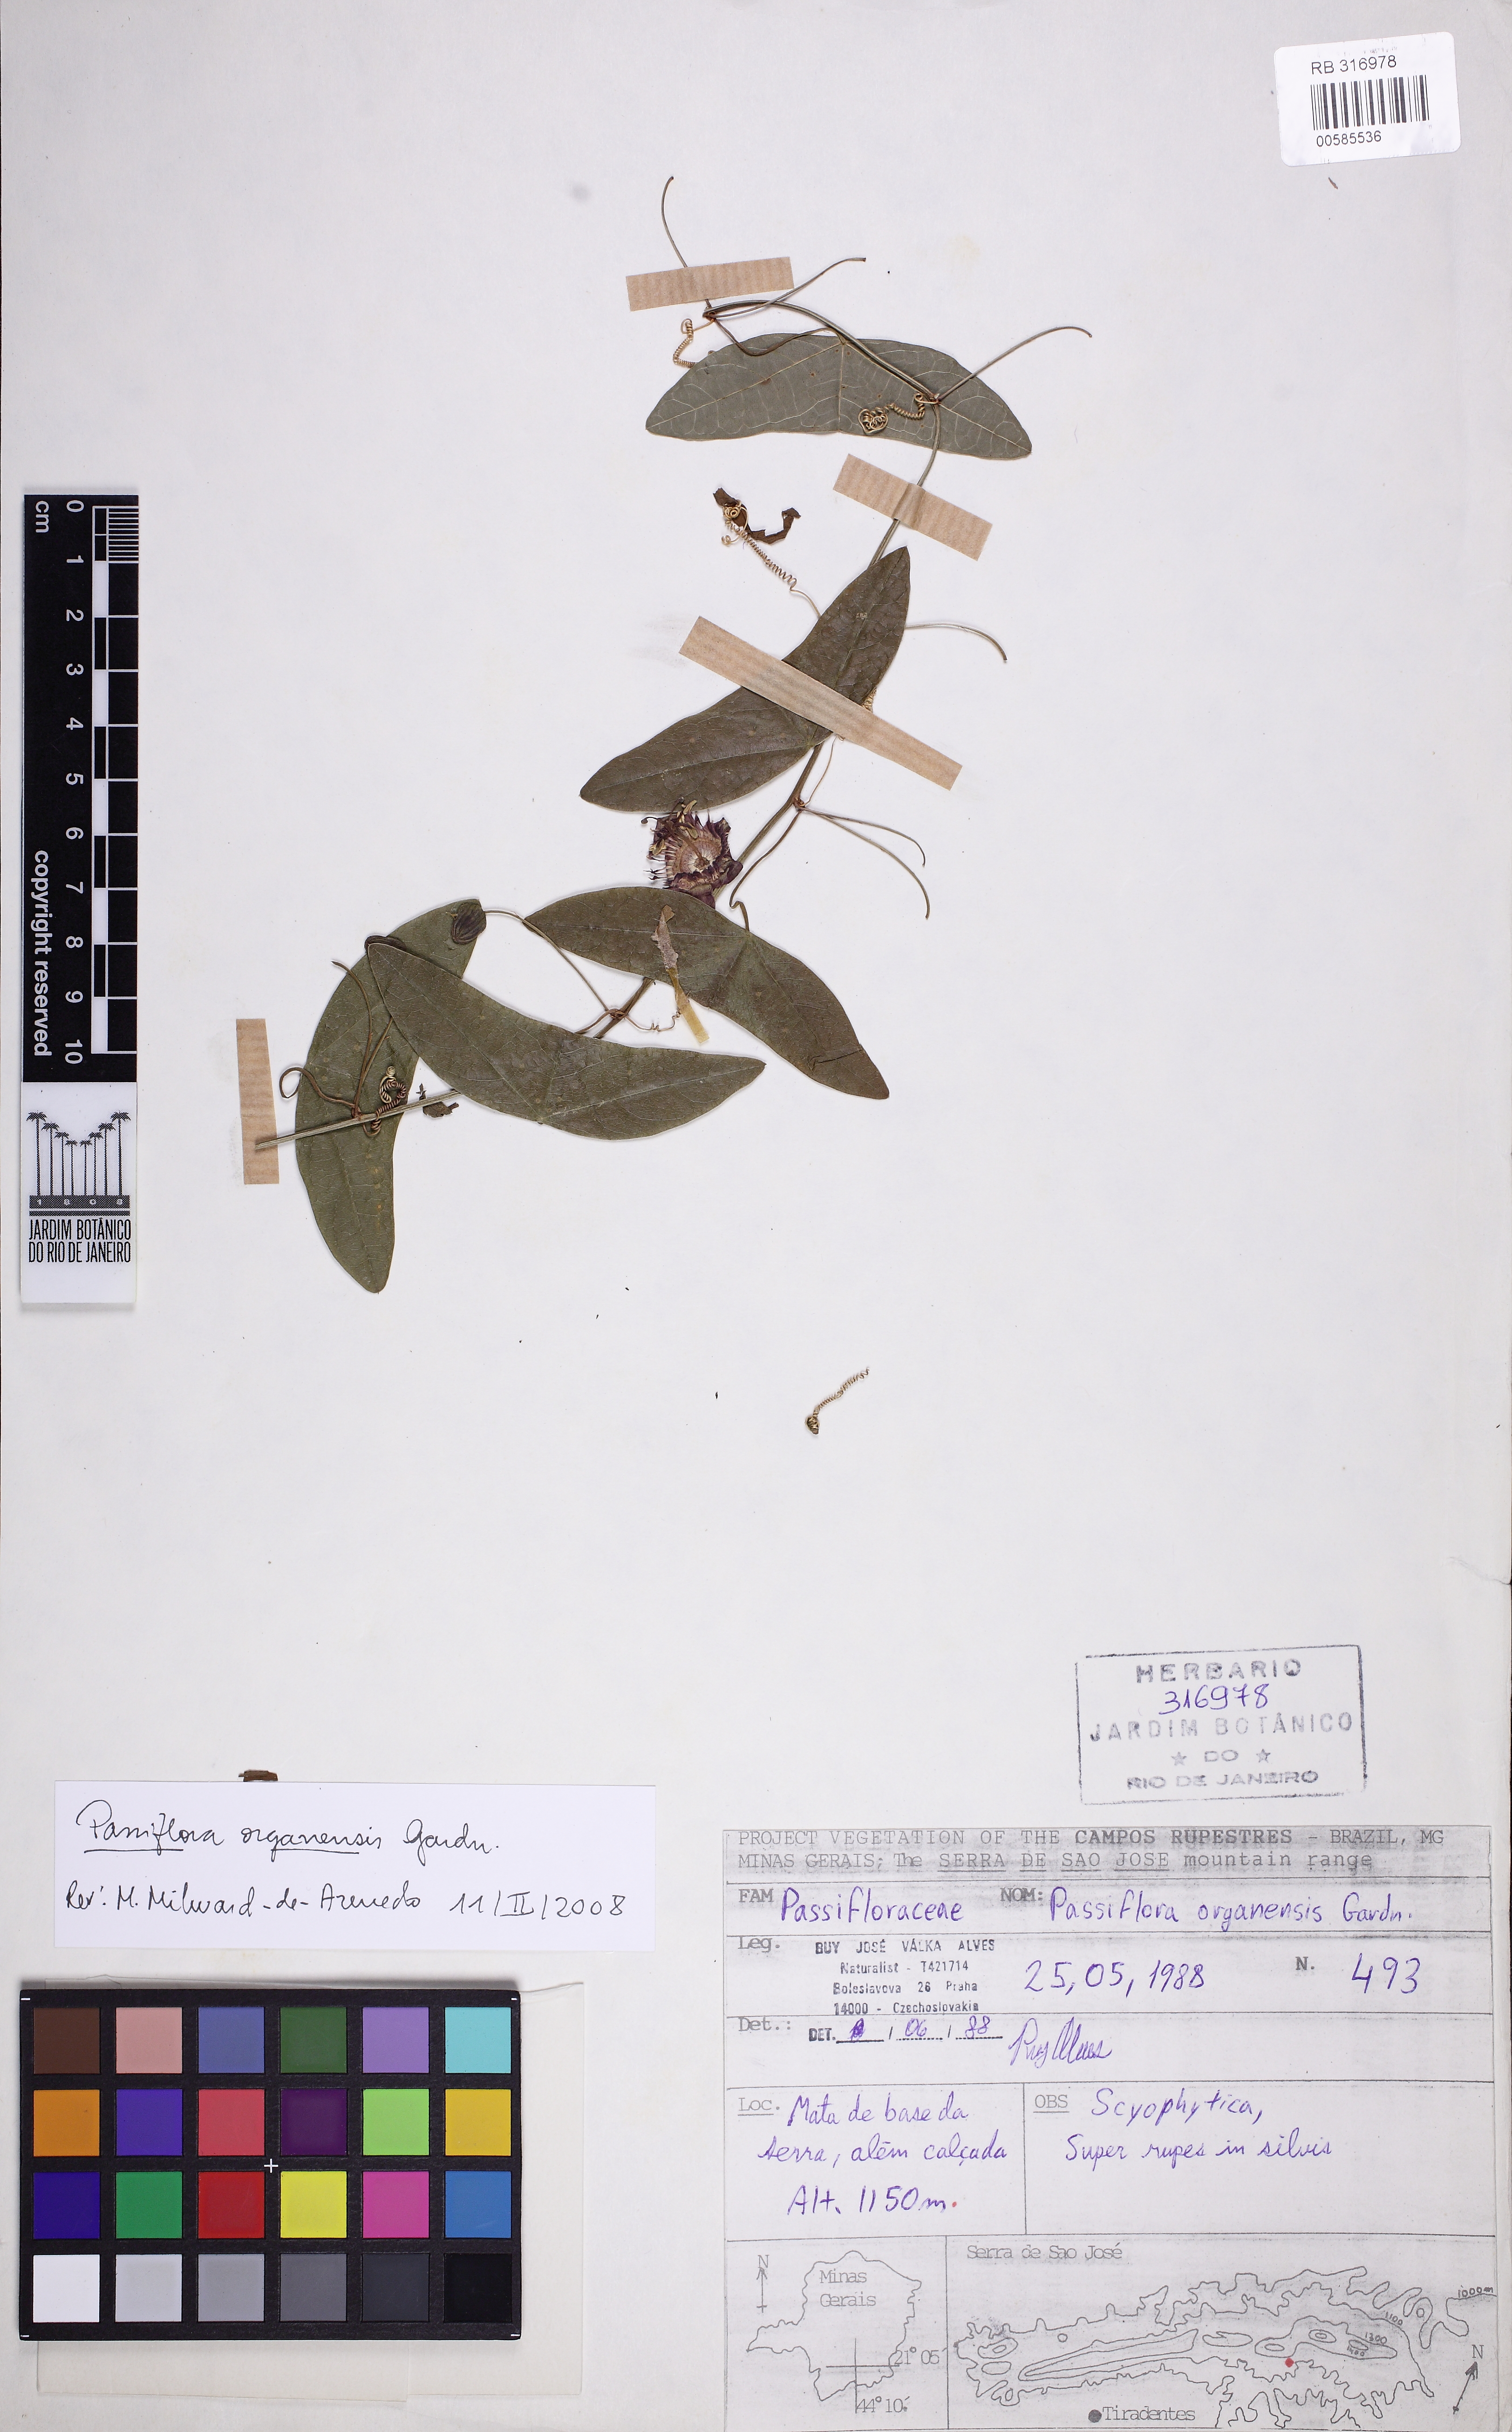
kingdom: Plantae
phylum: Tracheophyta
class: Magnoliopsida
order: Malpighiales
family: Passifloraceae
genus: Passiflora
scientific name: Passiflora porophylla
